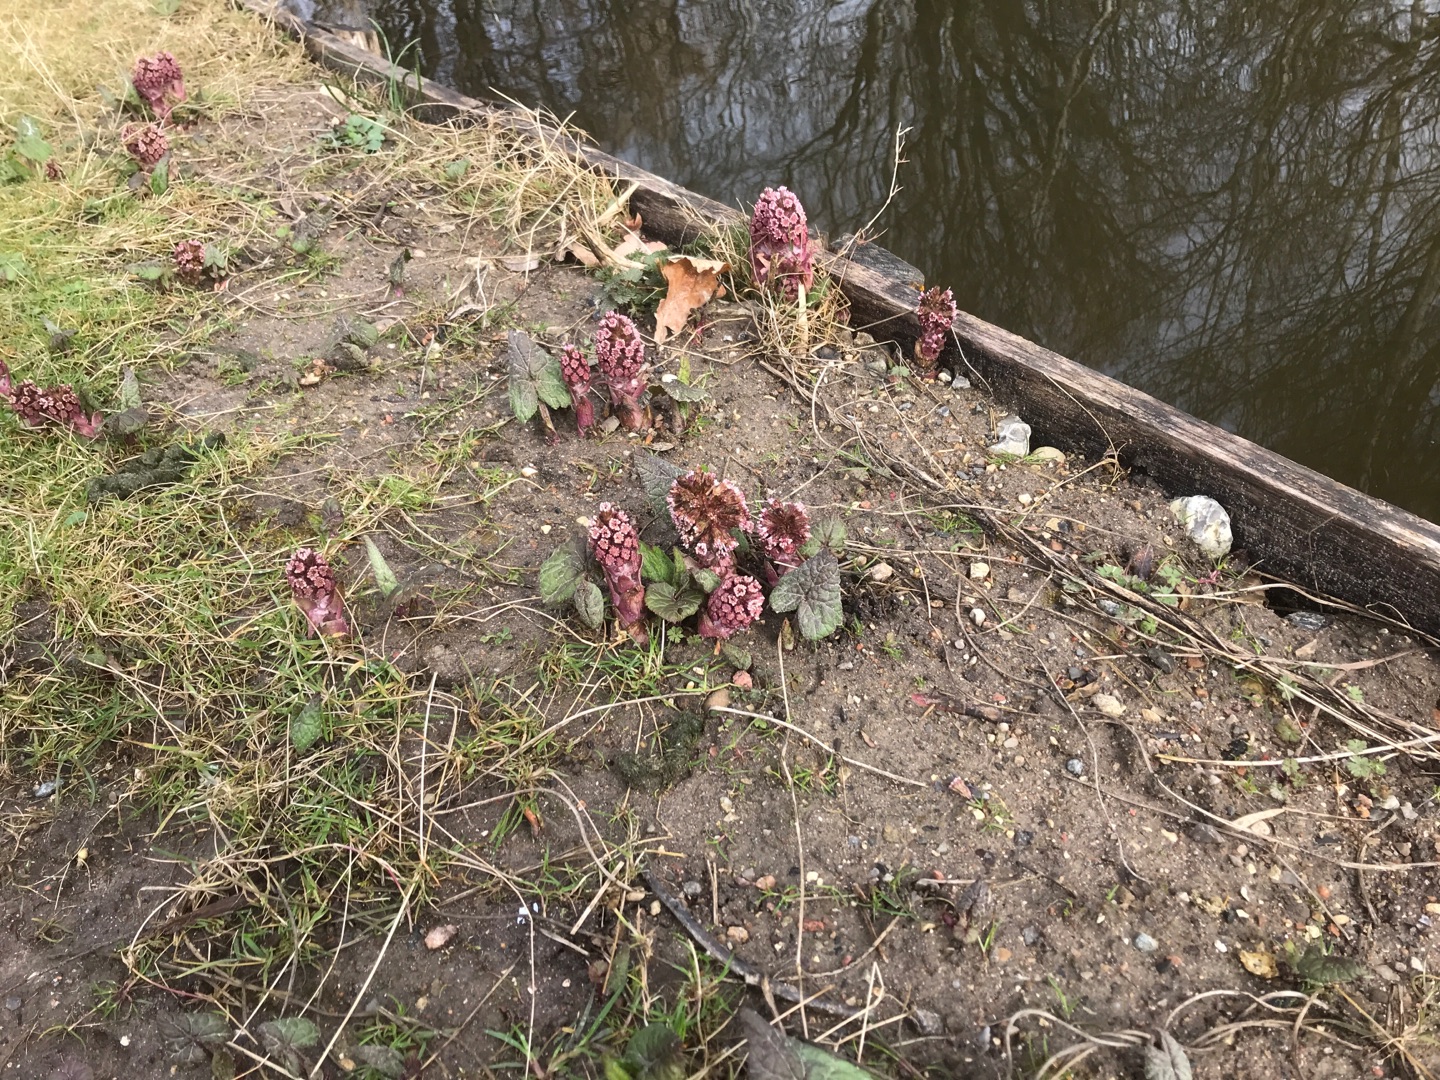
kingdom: Plantae
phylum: Tracheophyta
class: Magnoliopsida
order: Asterales
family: Asteraceae
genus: Petasites
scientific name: Petasites hybridus
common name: Rød hestehov
